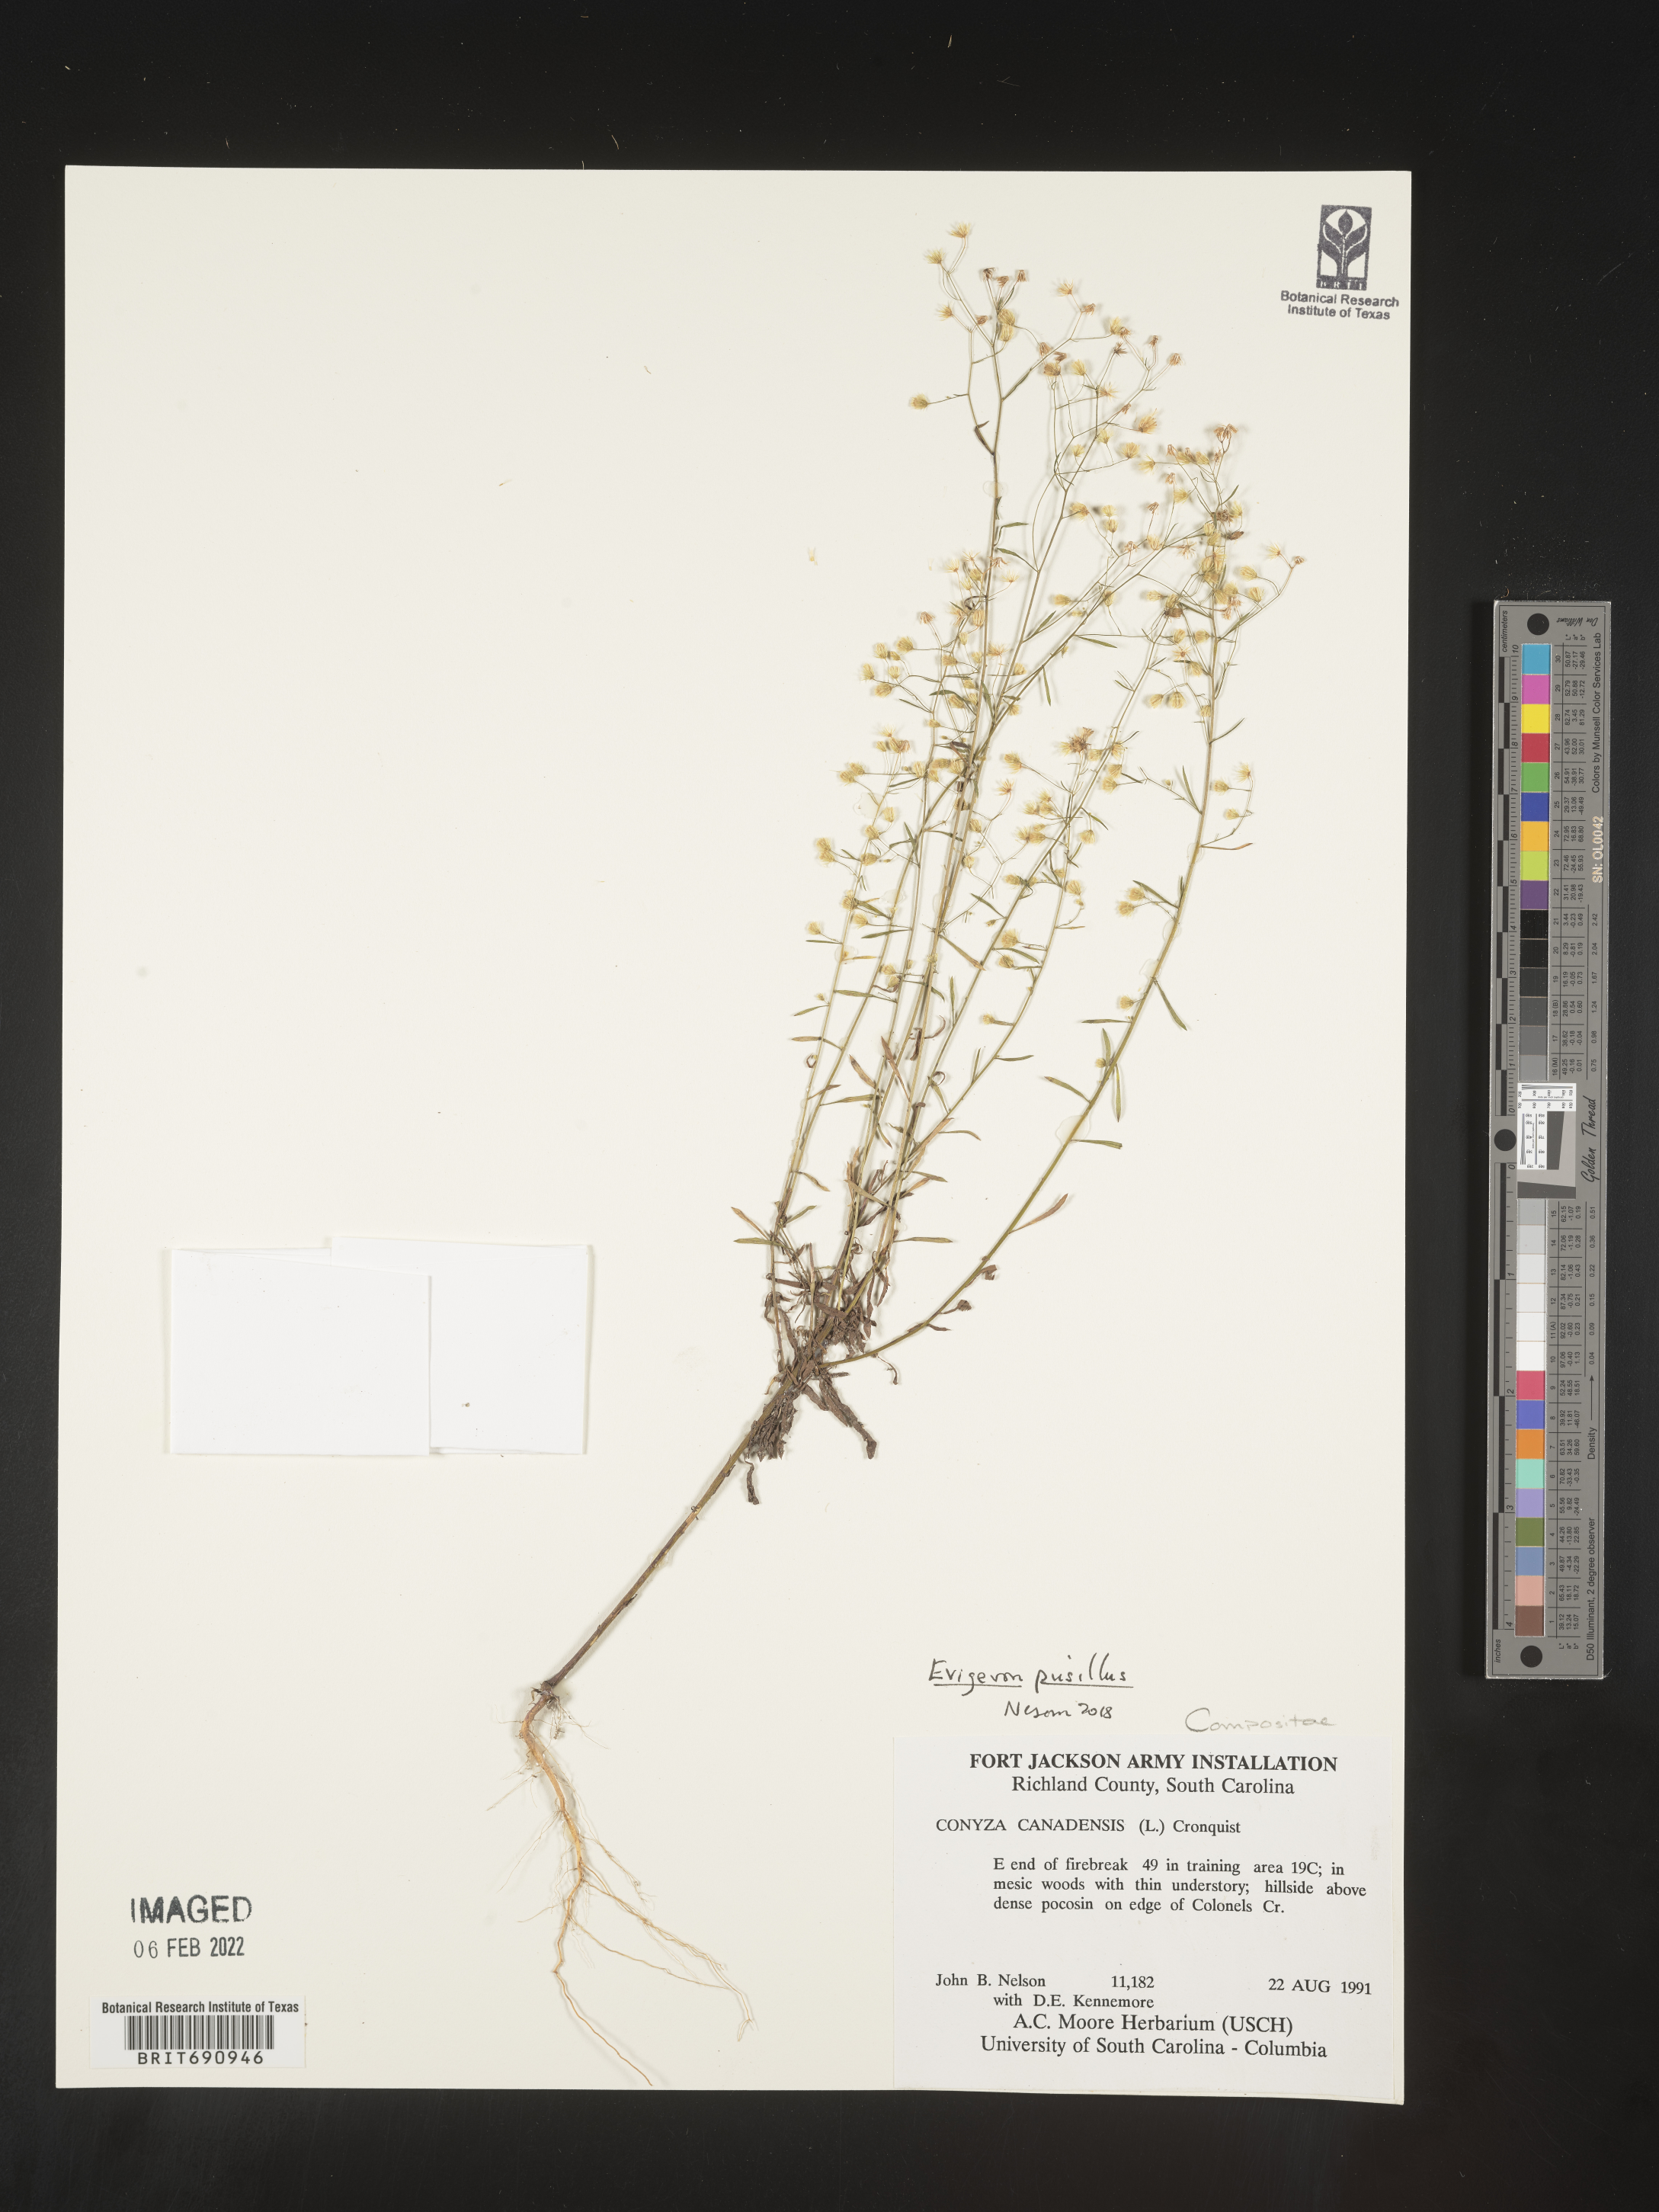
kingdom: Plantae
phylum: Tracheophyta
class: Magnoliopsida
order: Asterales
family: Asteraceae
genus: Erigeron
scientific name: Erigeron canadensis
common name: Canadian fleabane
